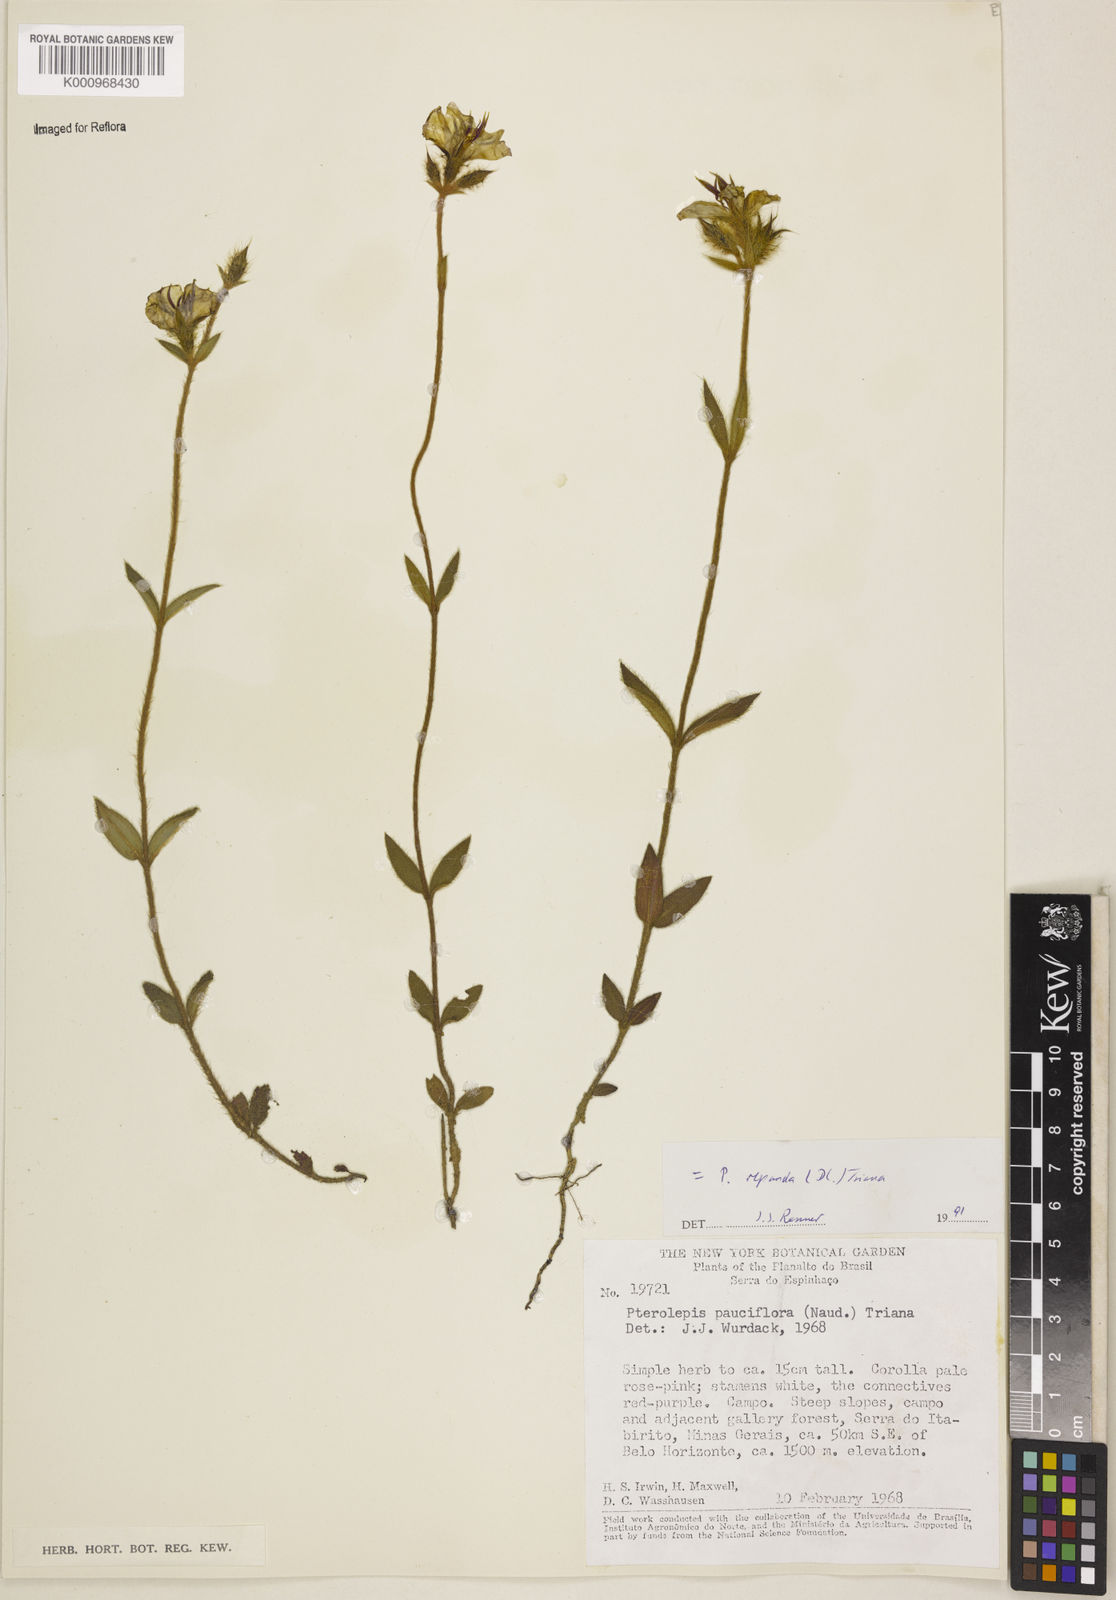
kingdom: Plantae
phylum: Tracheophyta
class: Magnoliopsida
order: Myrtales
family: Melastomataceae
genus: Pterolepis
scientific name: Pterolepis repanda
